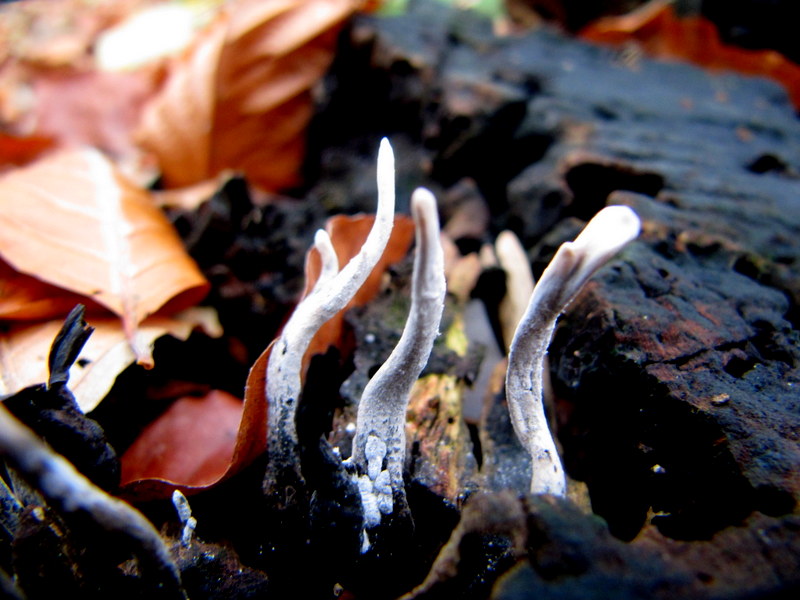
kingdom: Fungi
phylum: Ascomycota
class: Sordariomycetes
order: Xylariales
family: Xylariaceae
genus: Xylaria
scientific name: Xylaria hypoxylon
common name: grenet stødsvamp
